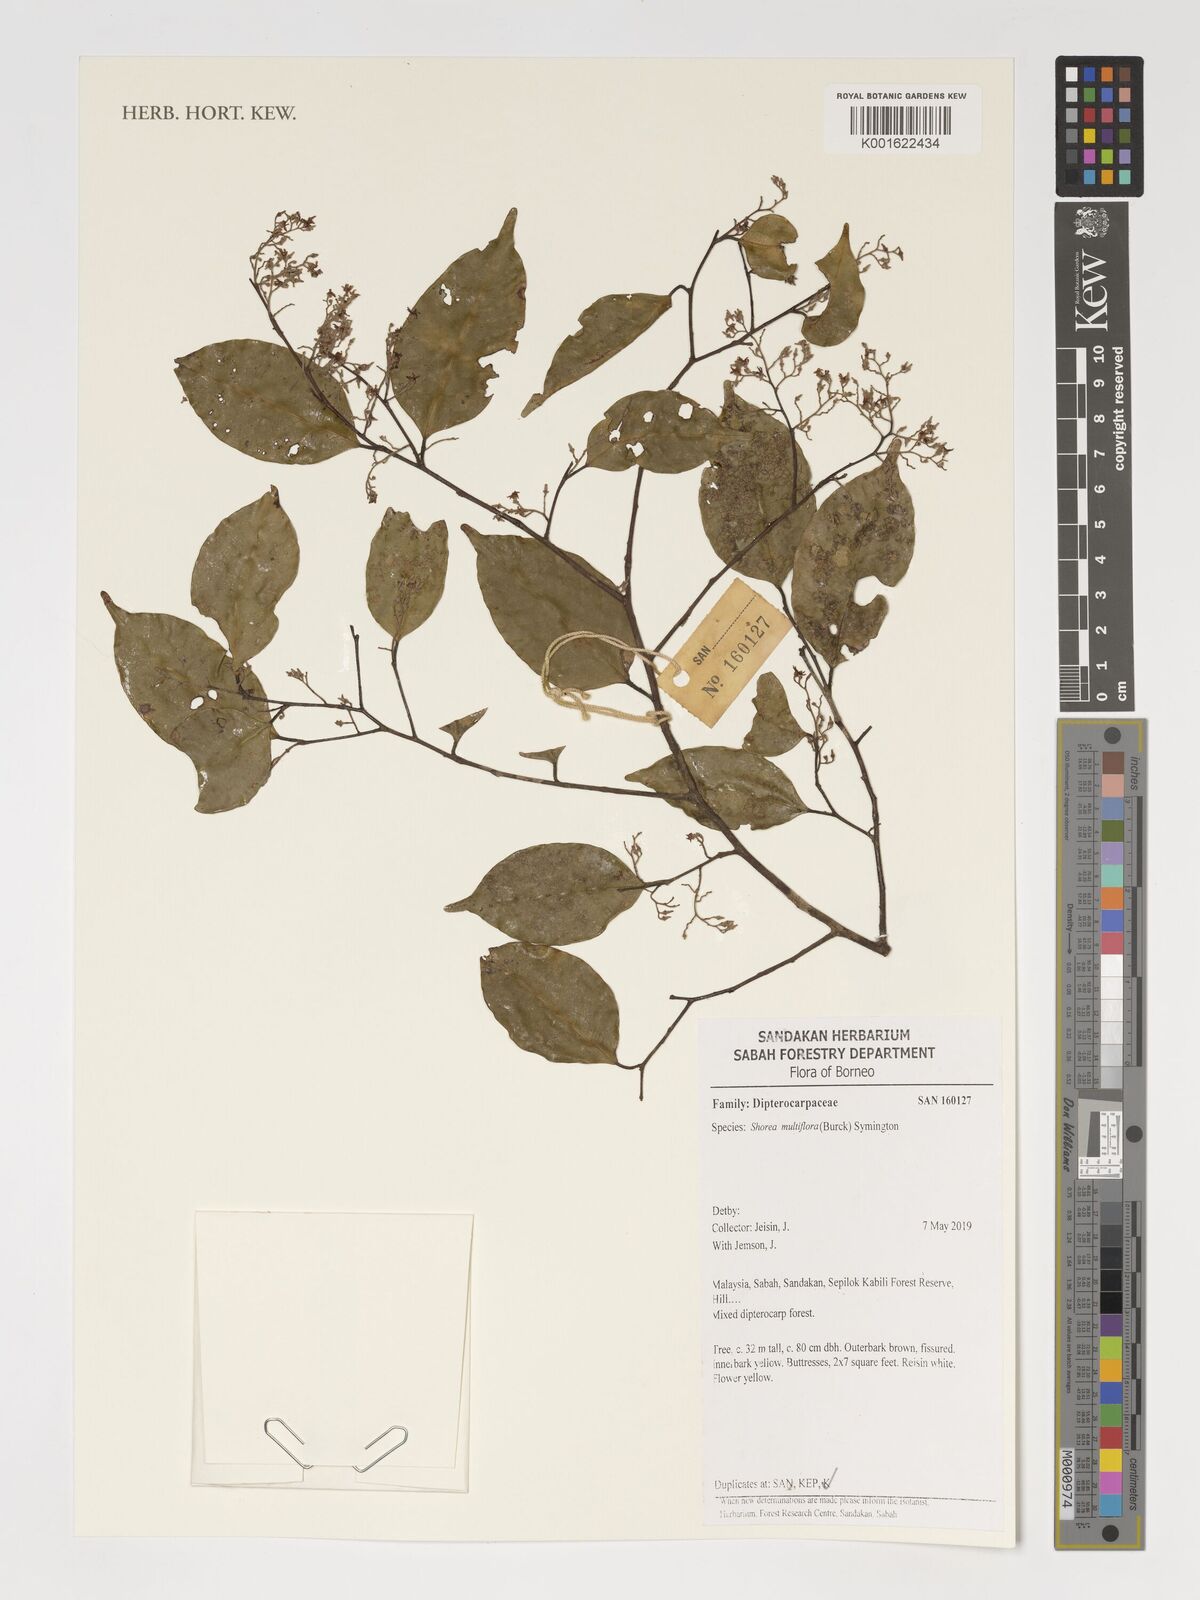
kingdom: Plantae
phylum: Tracheophyta
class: Magnoliopsida
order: Malvales
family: Dipterocarpaceae
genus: Shorea
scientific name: Shorea multiflora
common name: Yellow meranti
